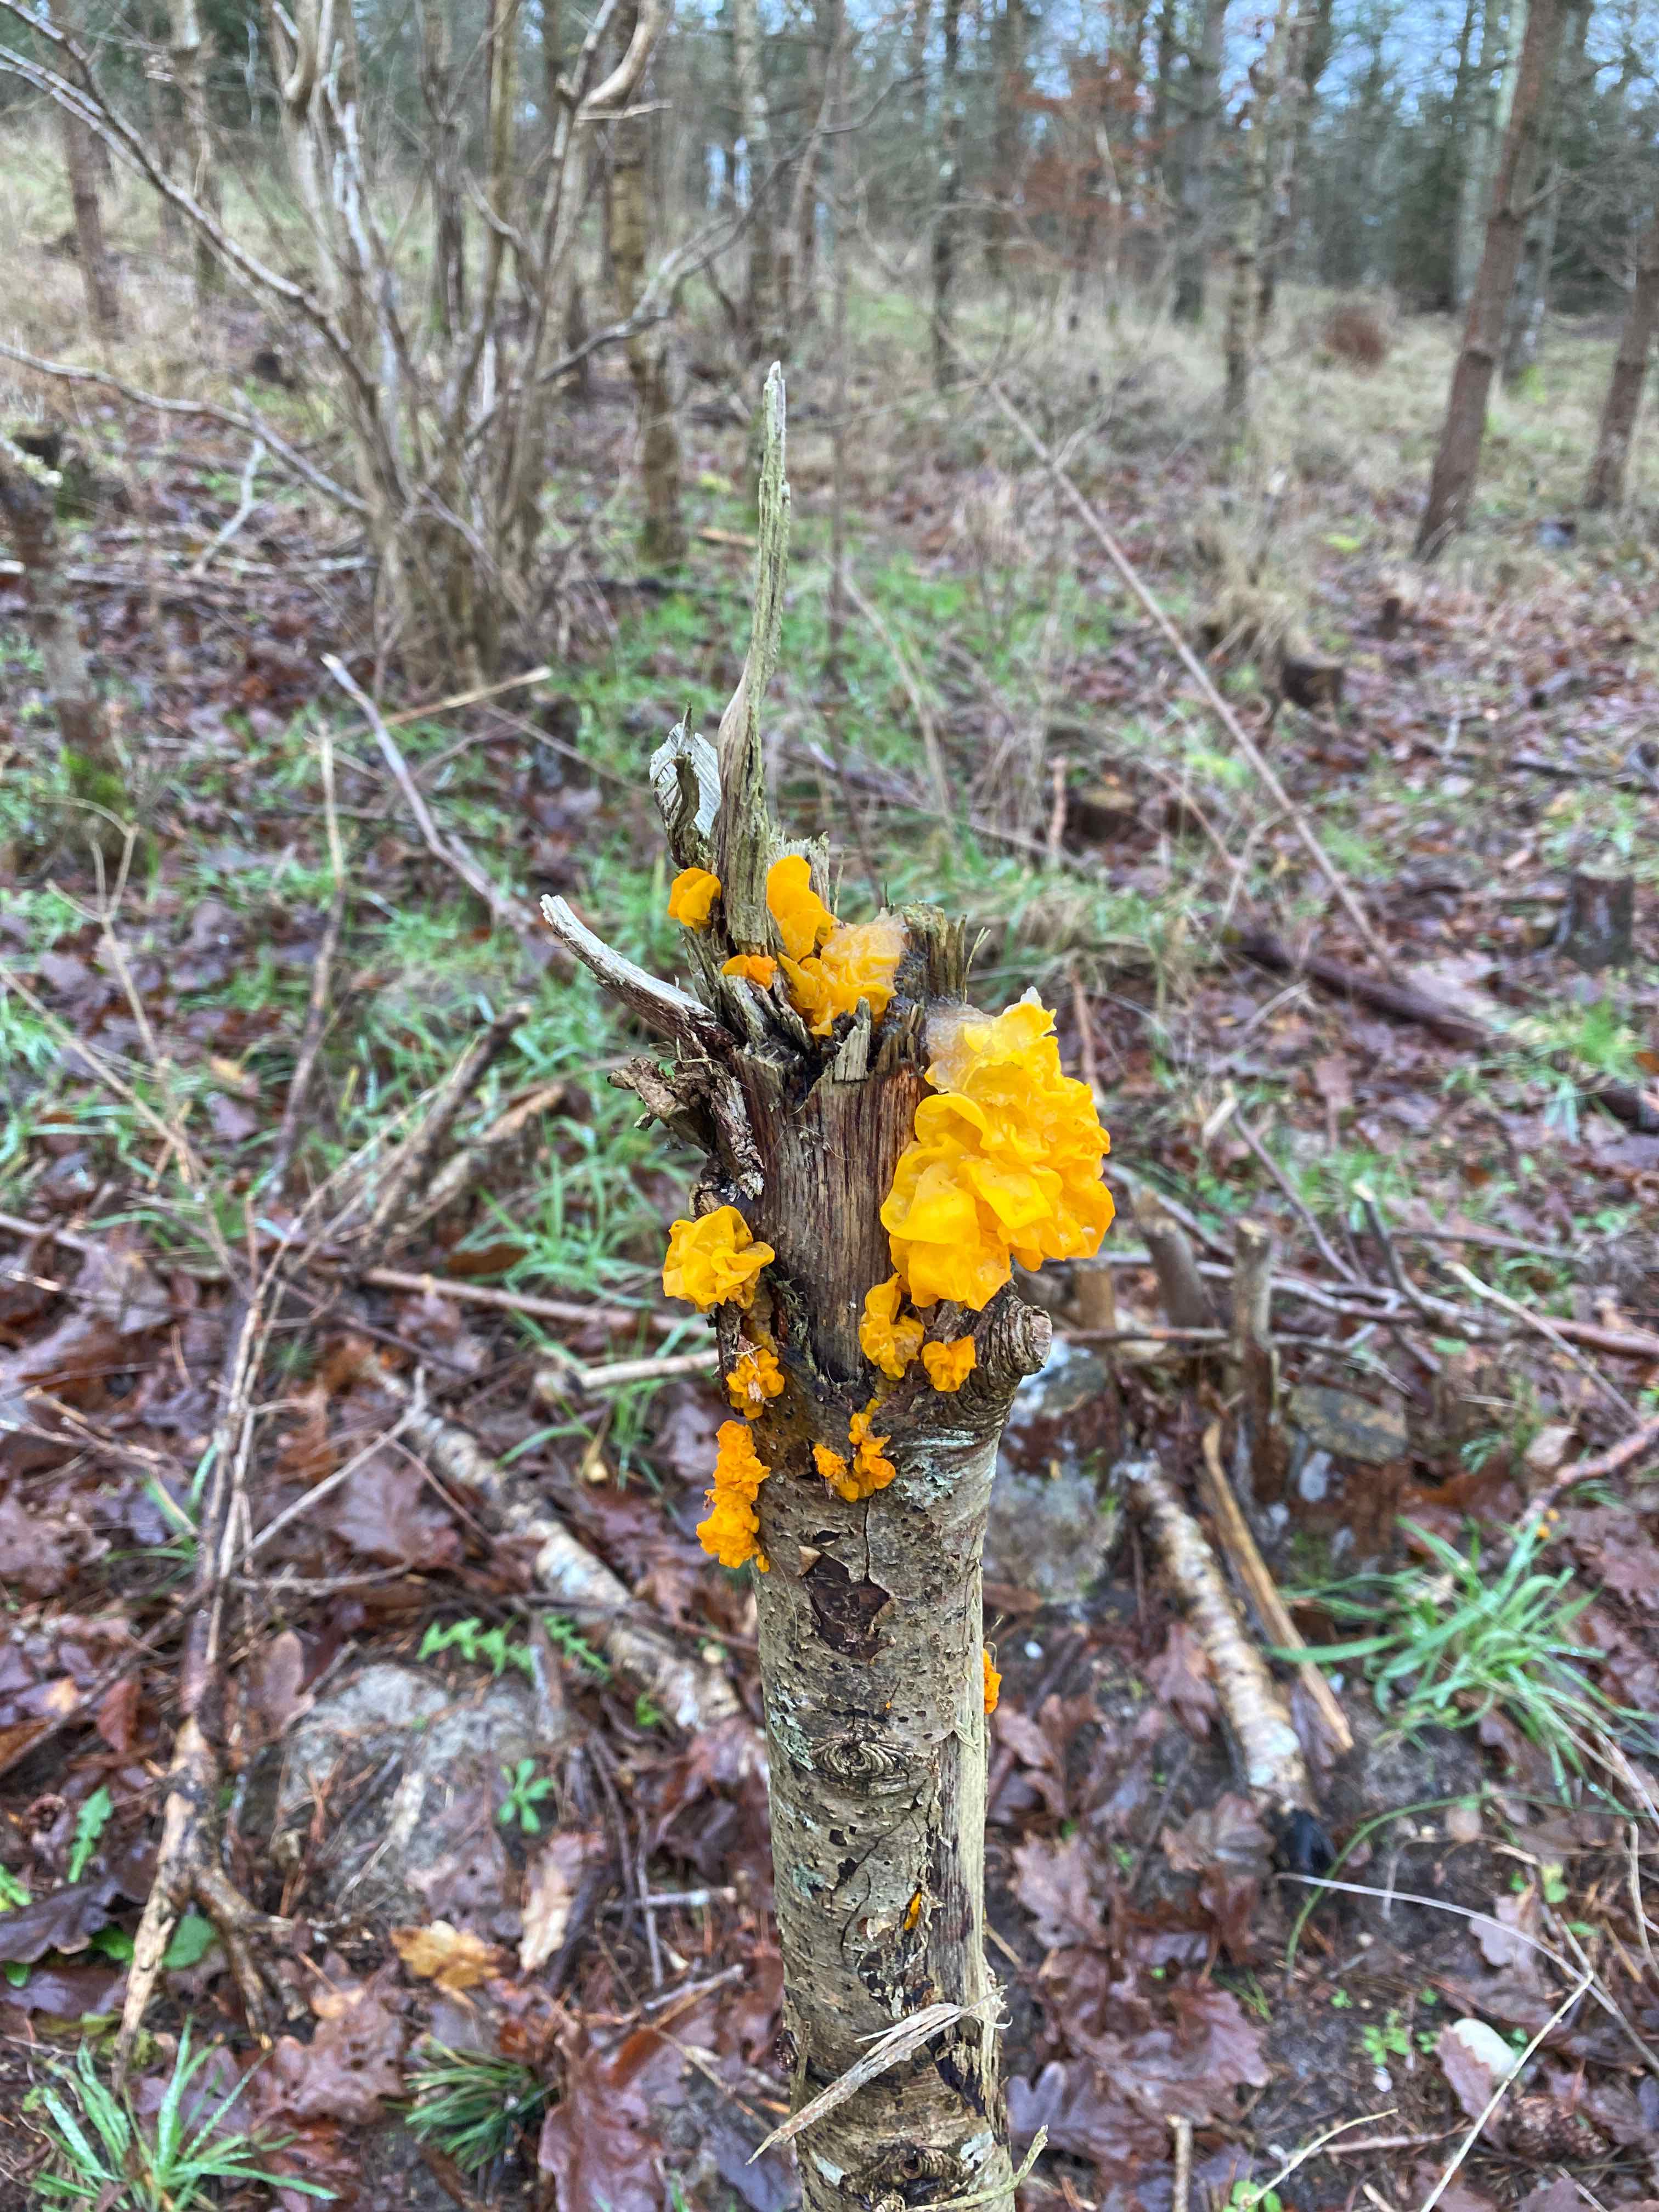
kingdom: Fungi
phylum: Basidiomycota
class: Tremellomycetes
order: Tremellales
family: Tremellaceae
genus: Tremella
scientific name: Tremella mesenterica
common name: gul bævresvamp
